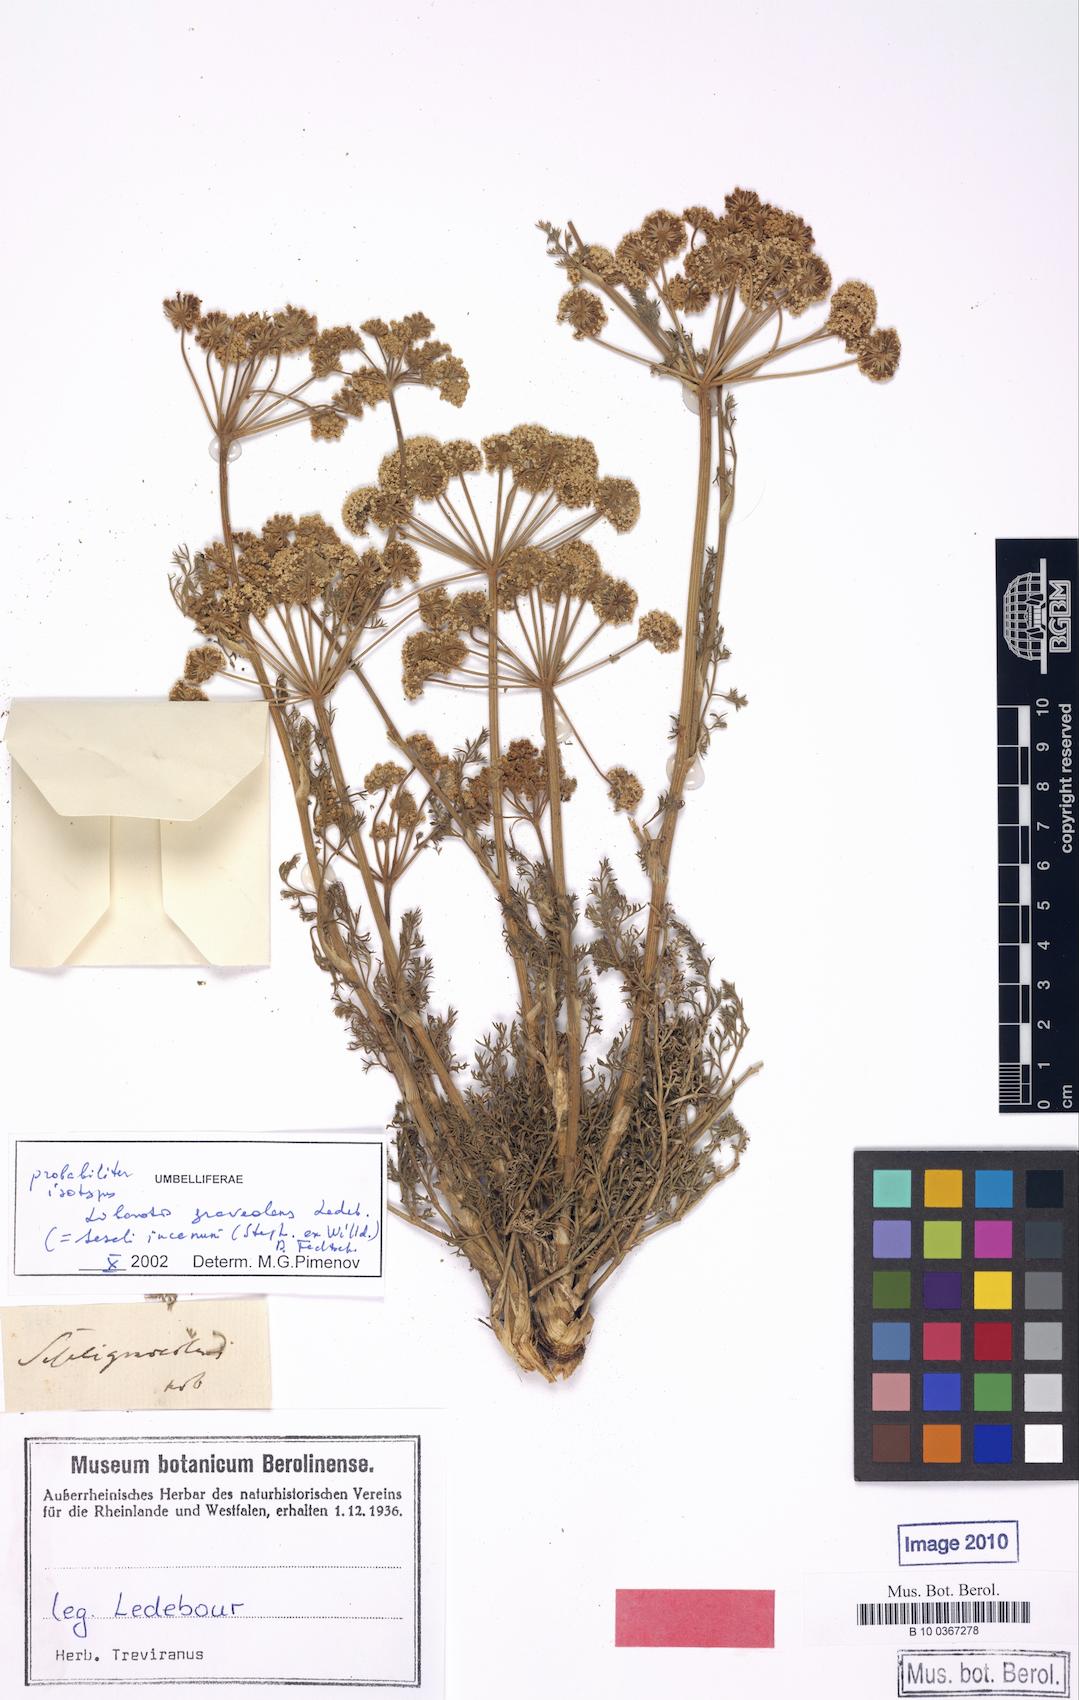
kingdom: Plantae
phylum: Tracheophyta
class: Magnoliopsida
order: Apiales
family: Apiaceae
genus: Seseli
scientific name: Seseli incanum
